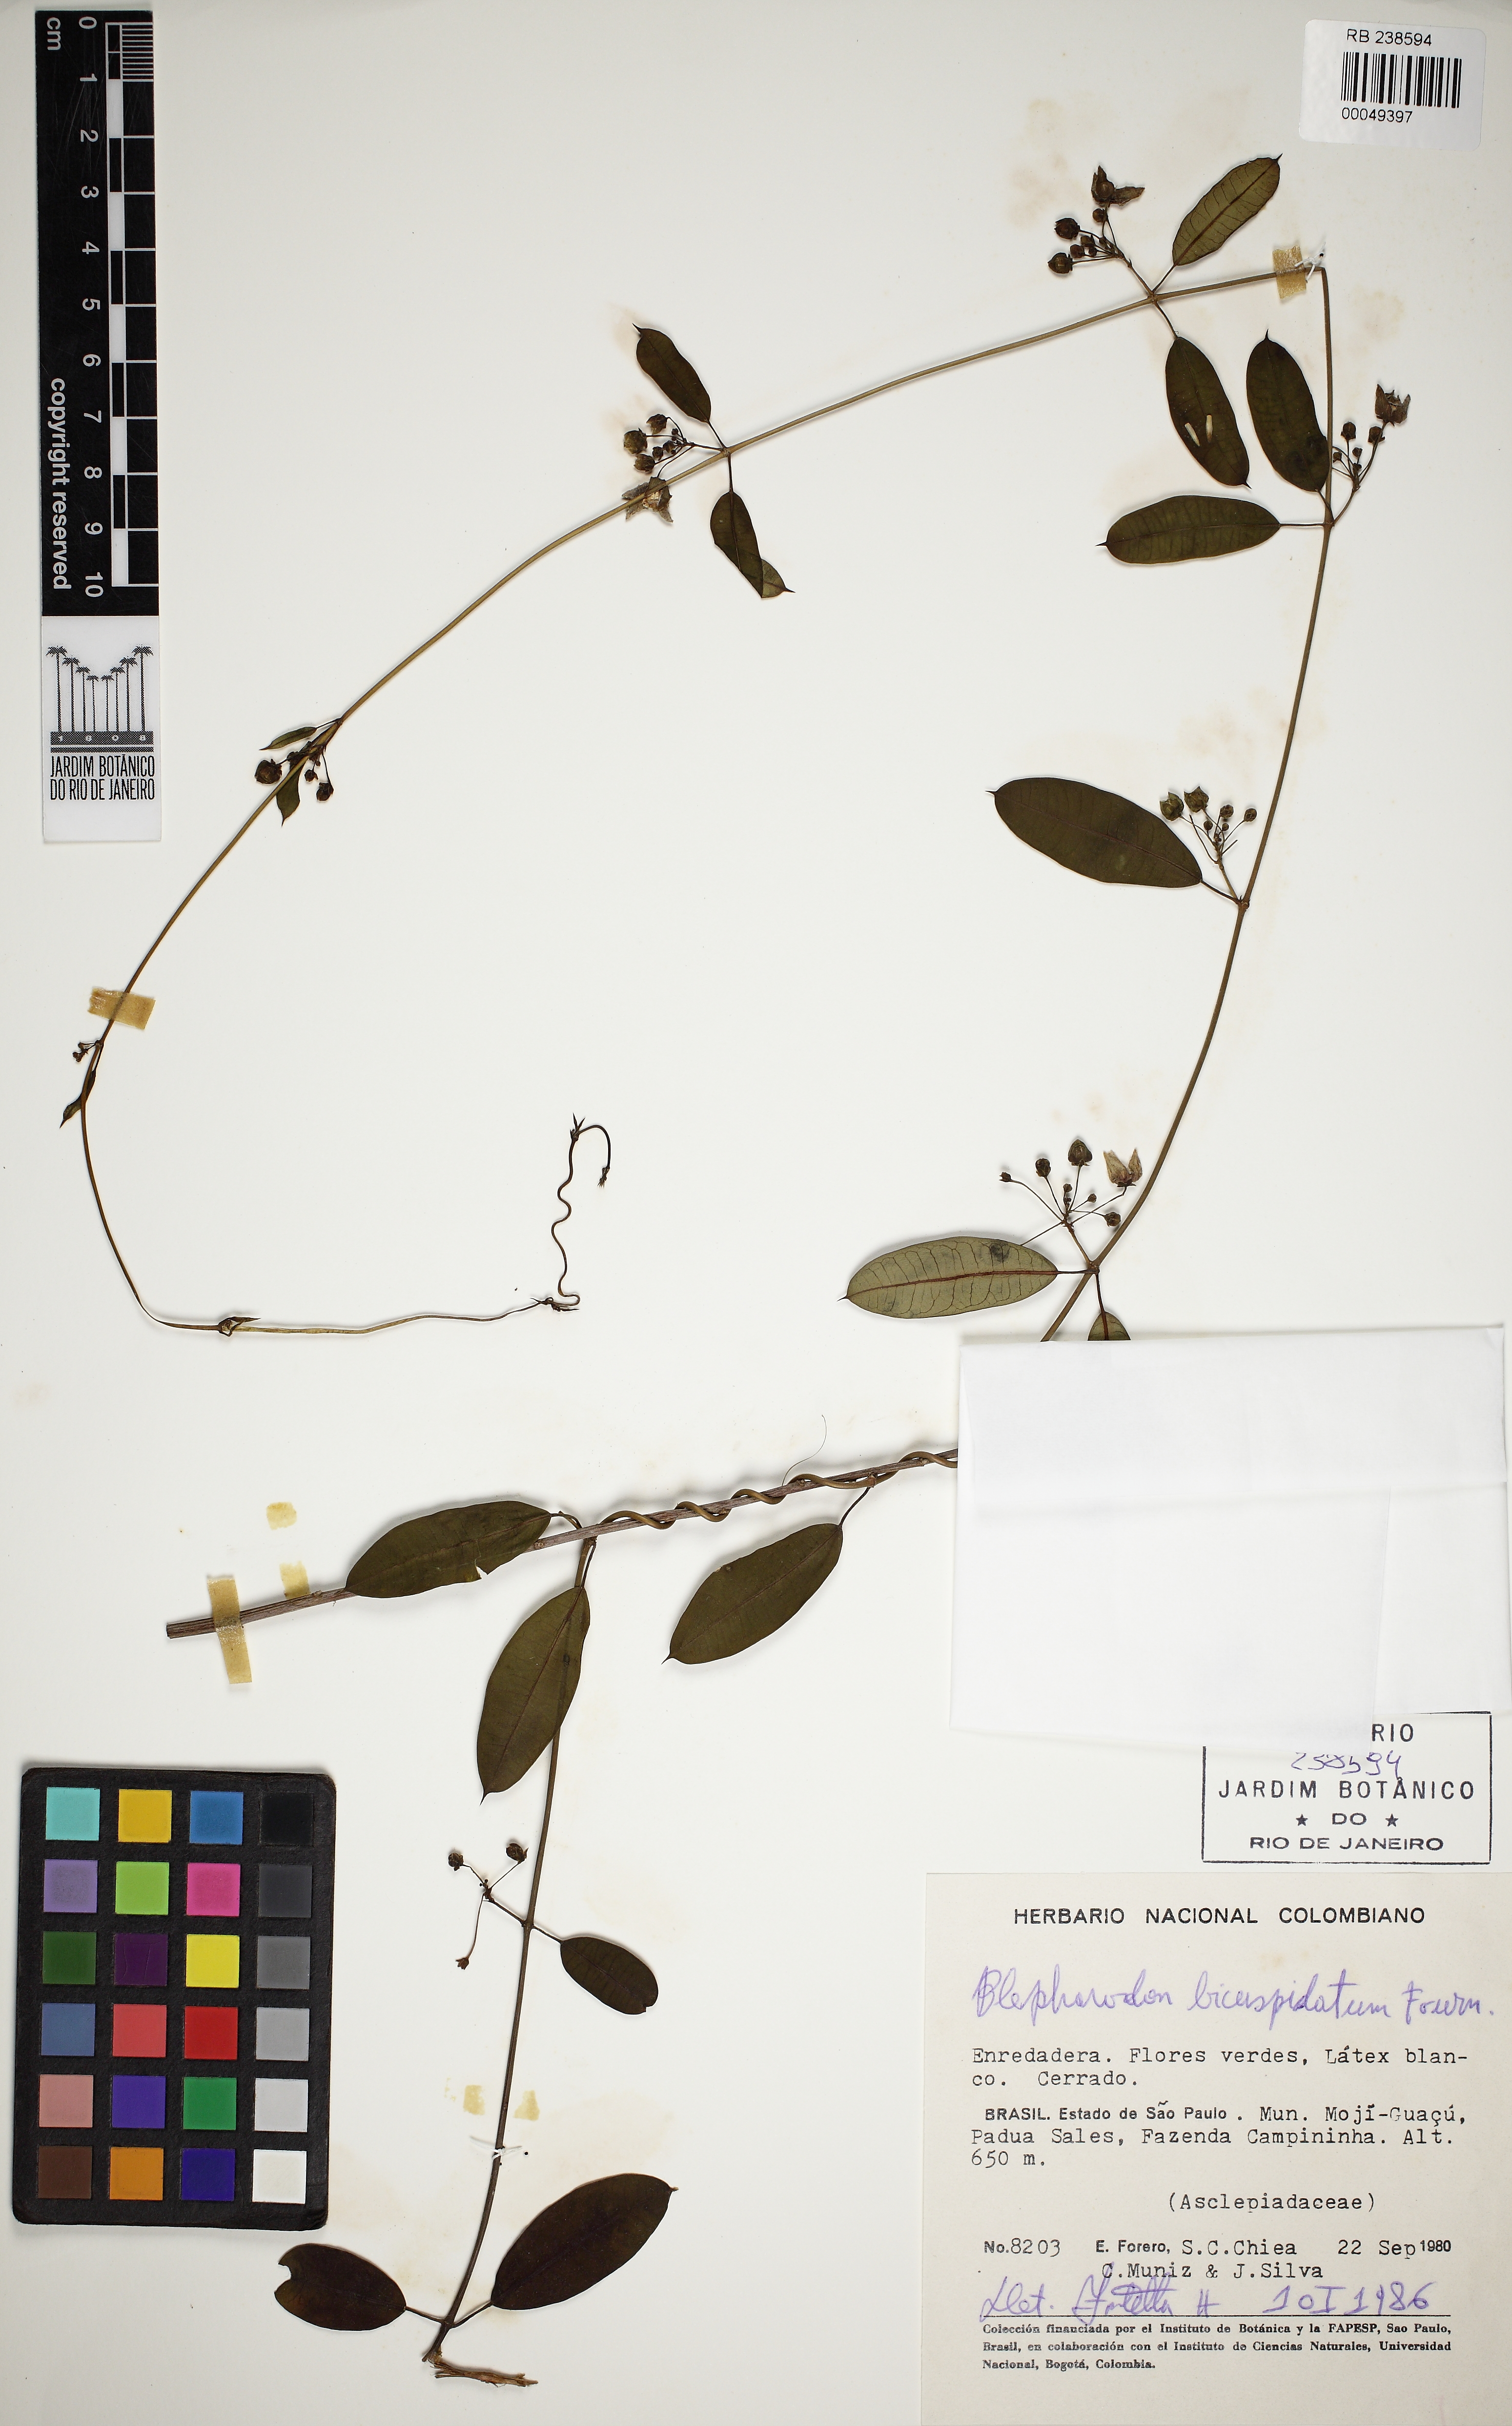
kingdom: Plantae
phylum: Tracheophyta
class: Magnoliopsida
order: Gentianales
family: Apocynaceae
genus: Blepharodon
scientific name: Blepharodon bicuspidatum
